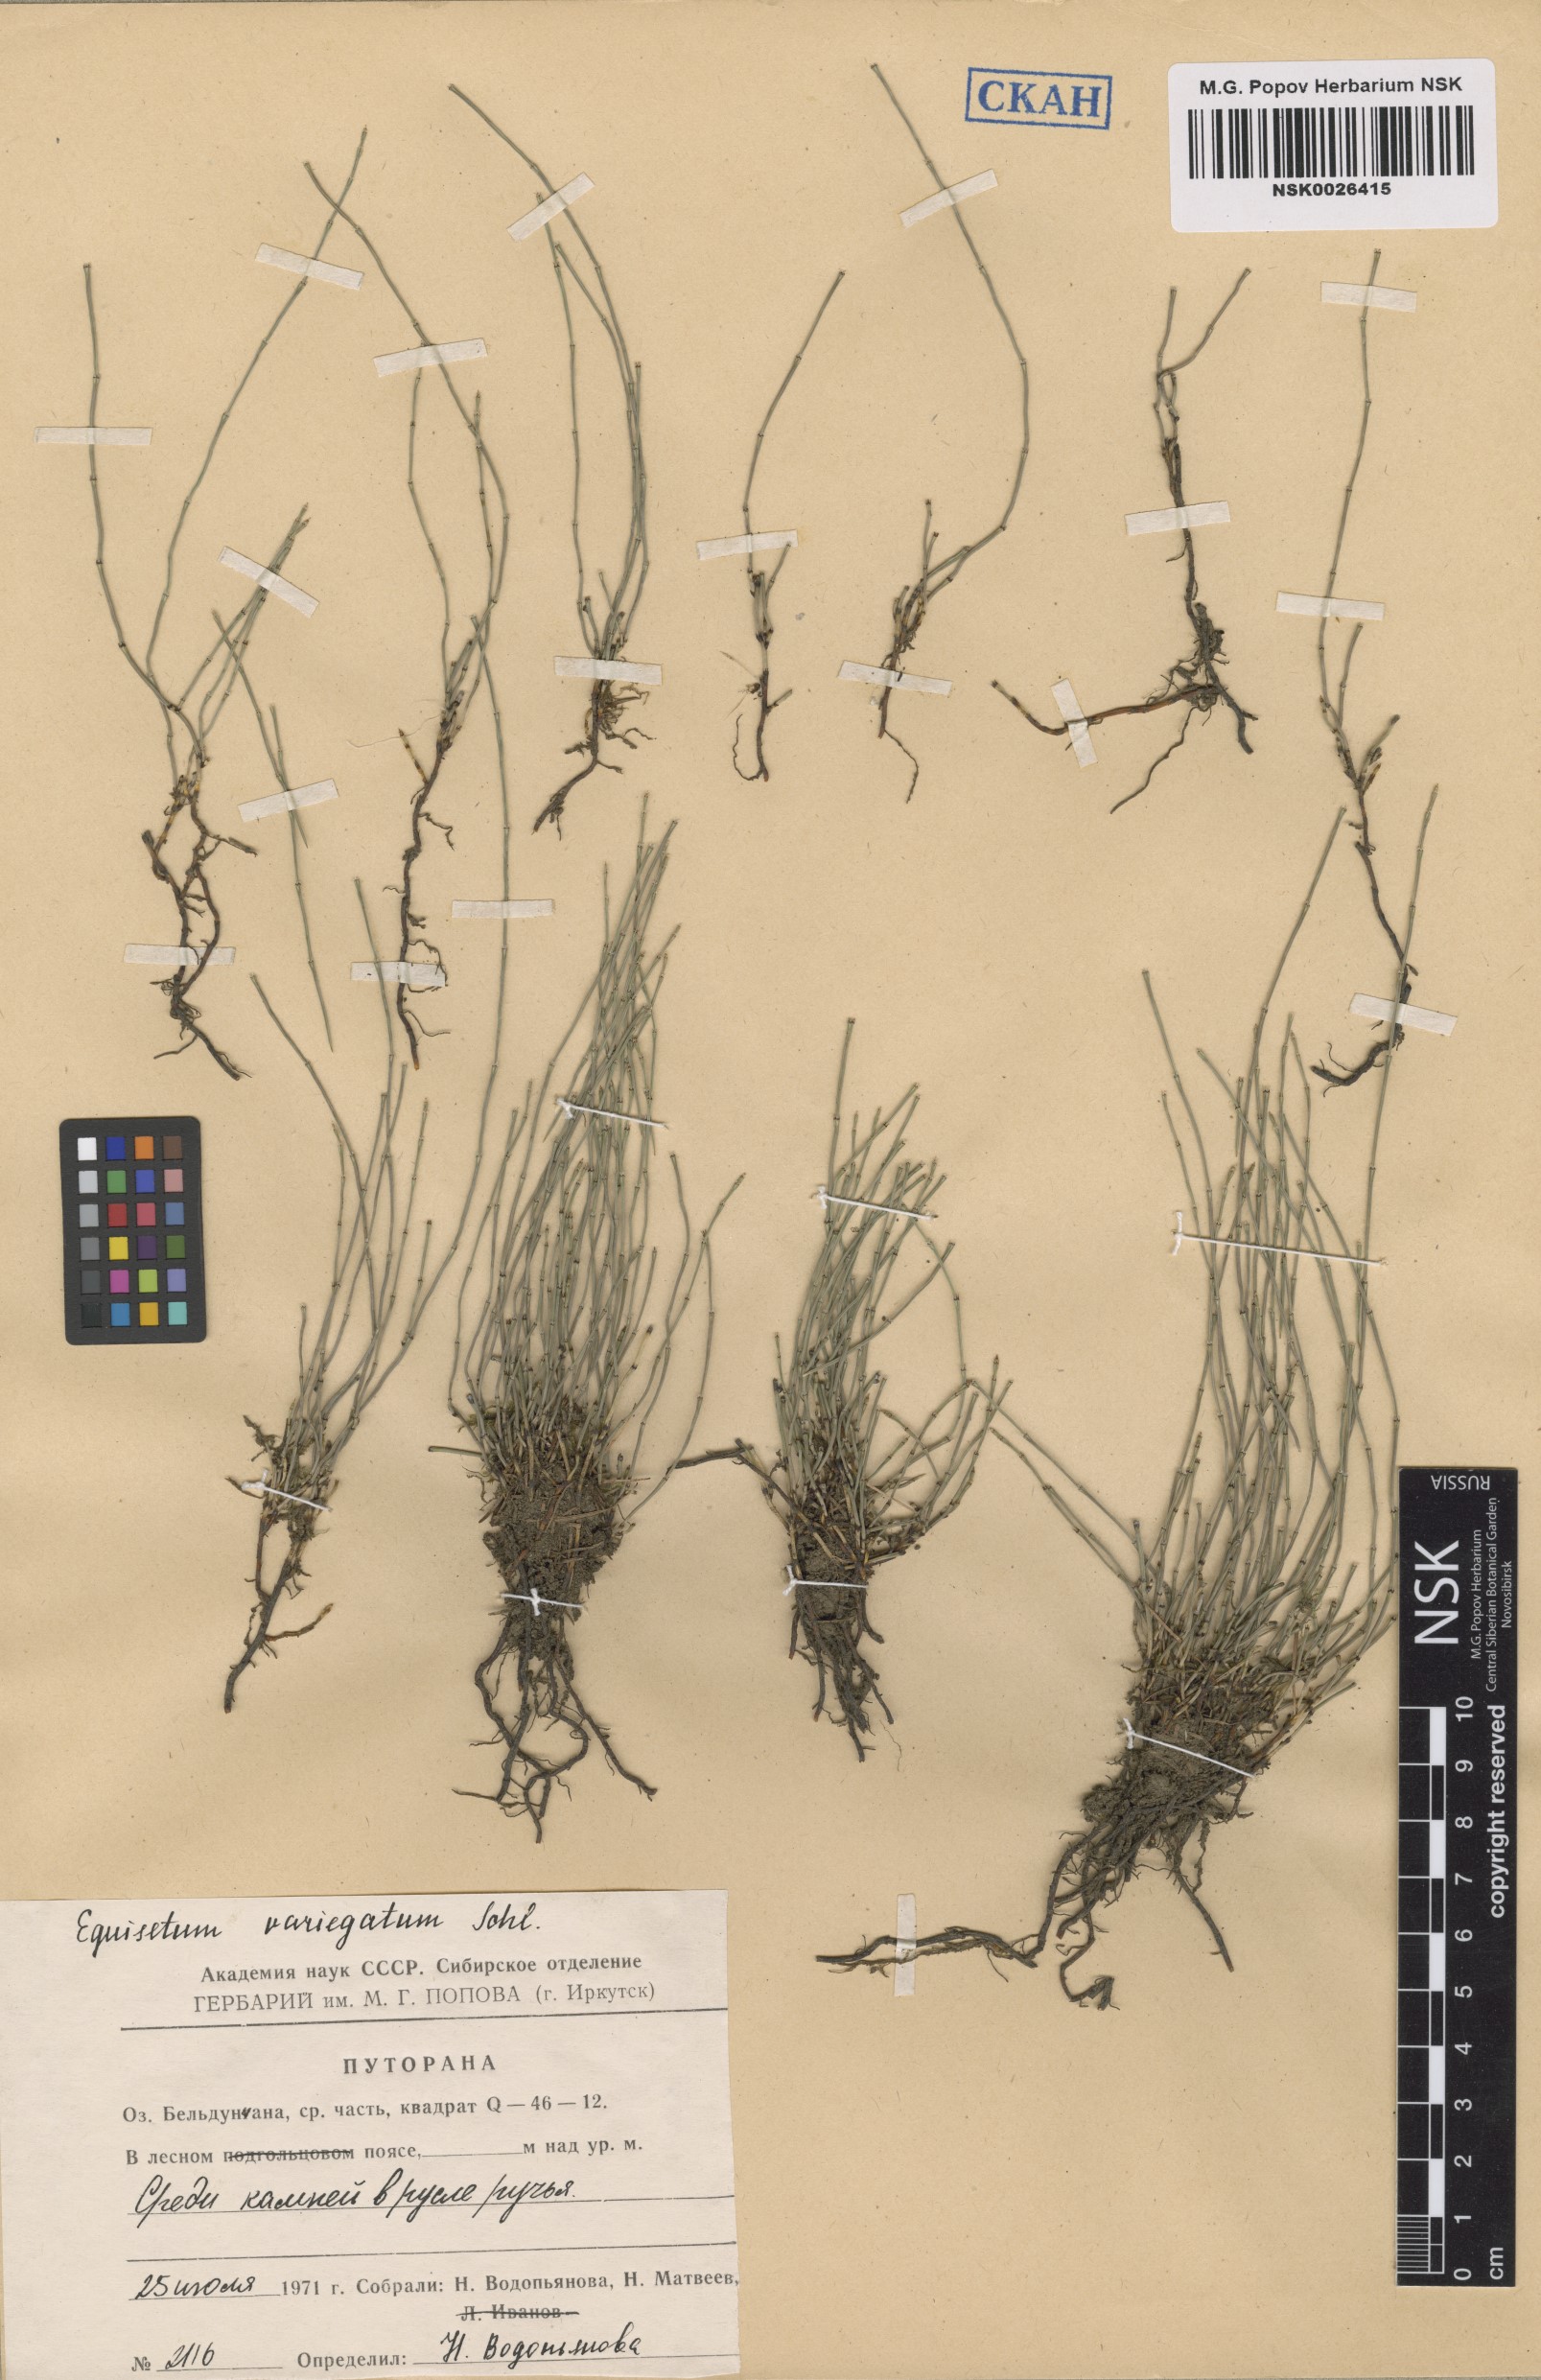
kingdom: Plantae
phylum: Tracheophyta
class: Polypodiopsida
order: Equisetales
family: Equisetaceae
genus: Equisetum
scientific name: Equisetum variegatum
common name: Variegated horsetail
